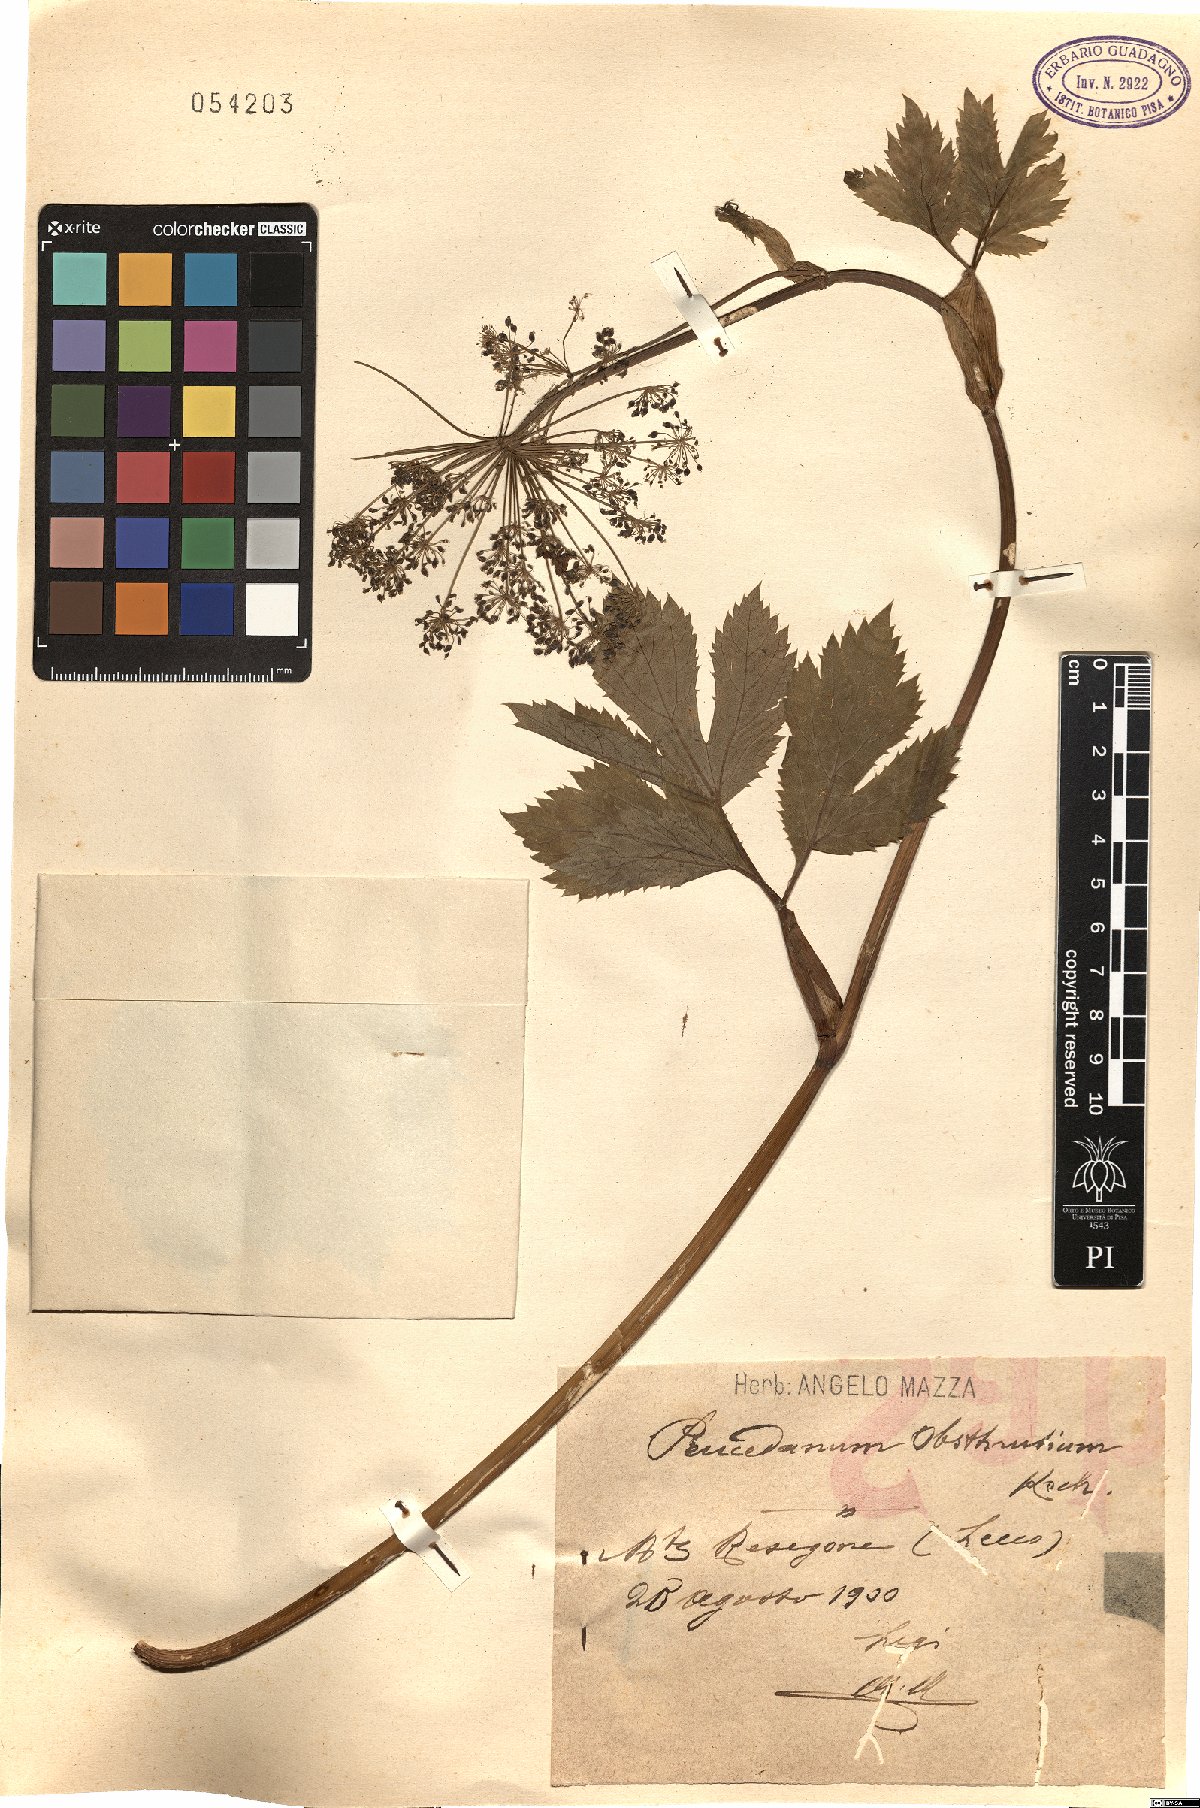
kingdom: Plantae
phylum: Tracheophyta
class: Magnoliopsida
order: Apiales
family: Apiaceae
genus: Imperatoria
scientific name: Imperatoria ostruthium
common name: Masterwort
